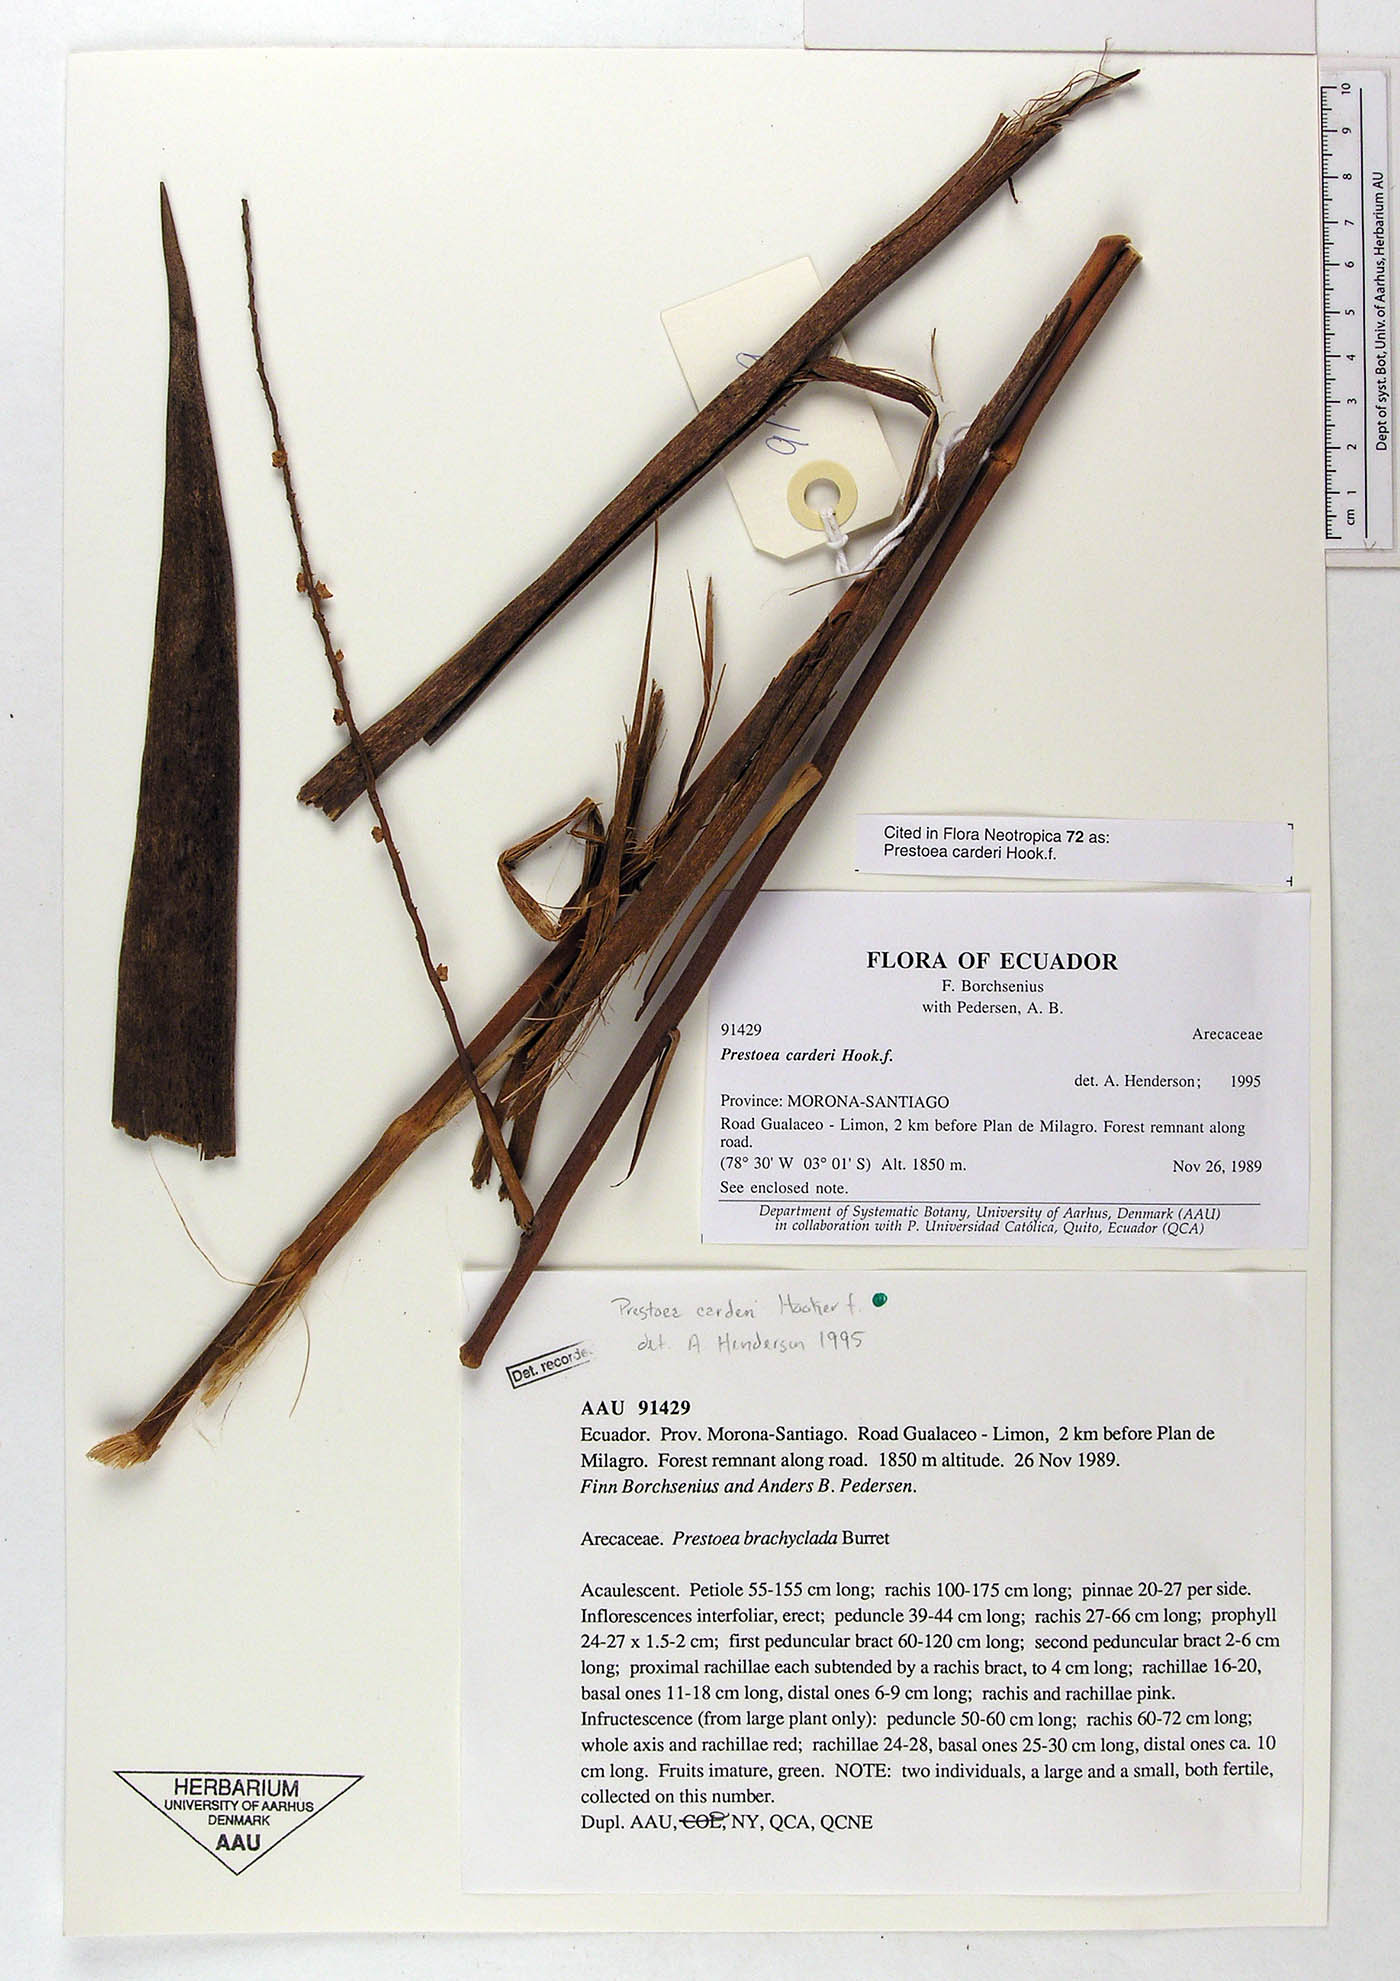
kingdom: Plantae
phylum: Tracheophyta
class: Liliopsida
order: Arecales
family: Arecaceae
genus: Prestoea
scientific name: Prestoea carderi
